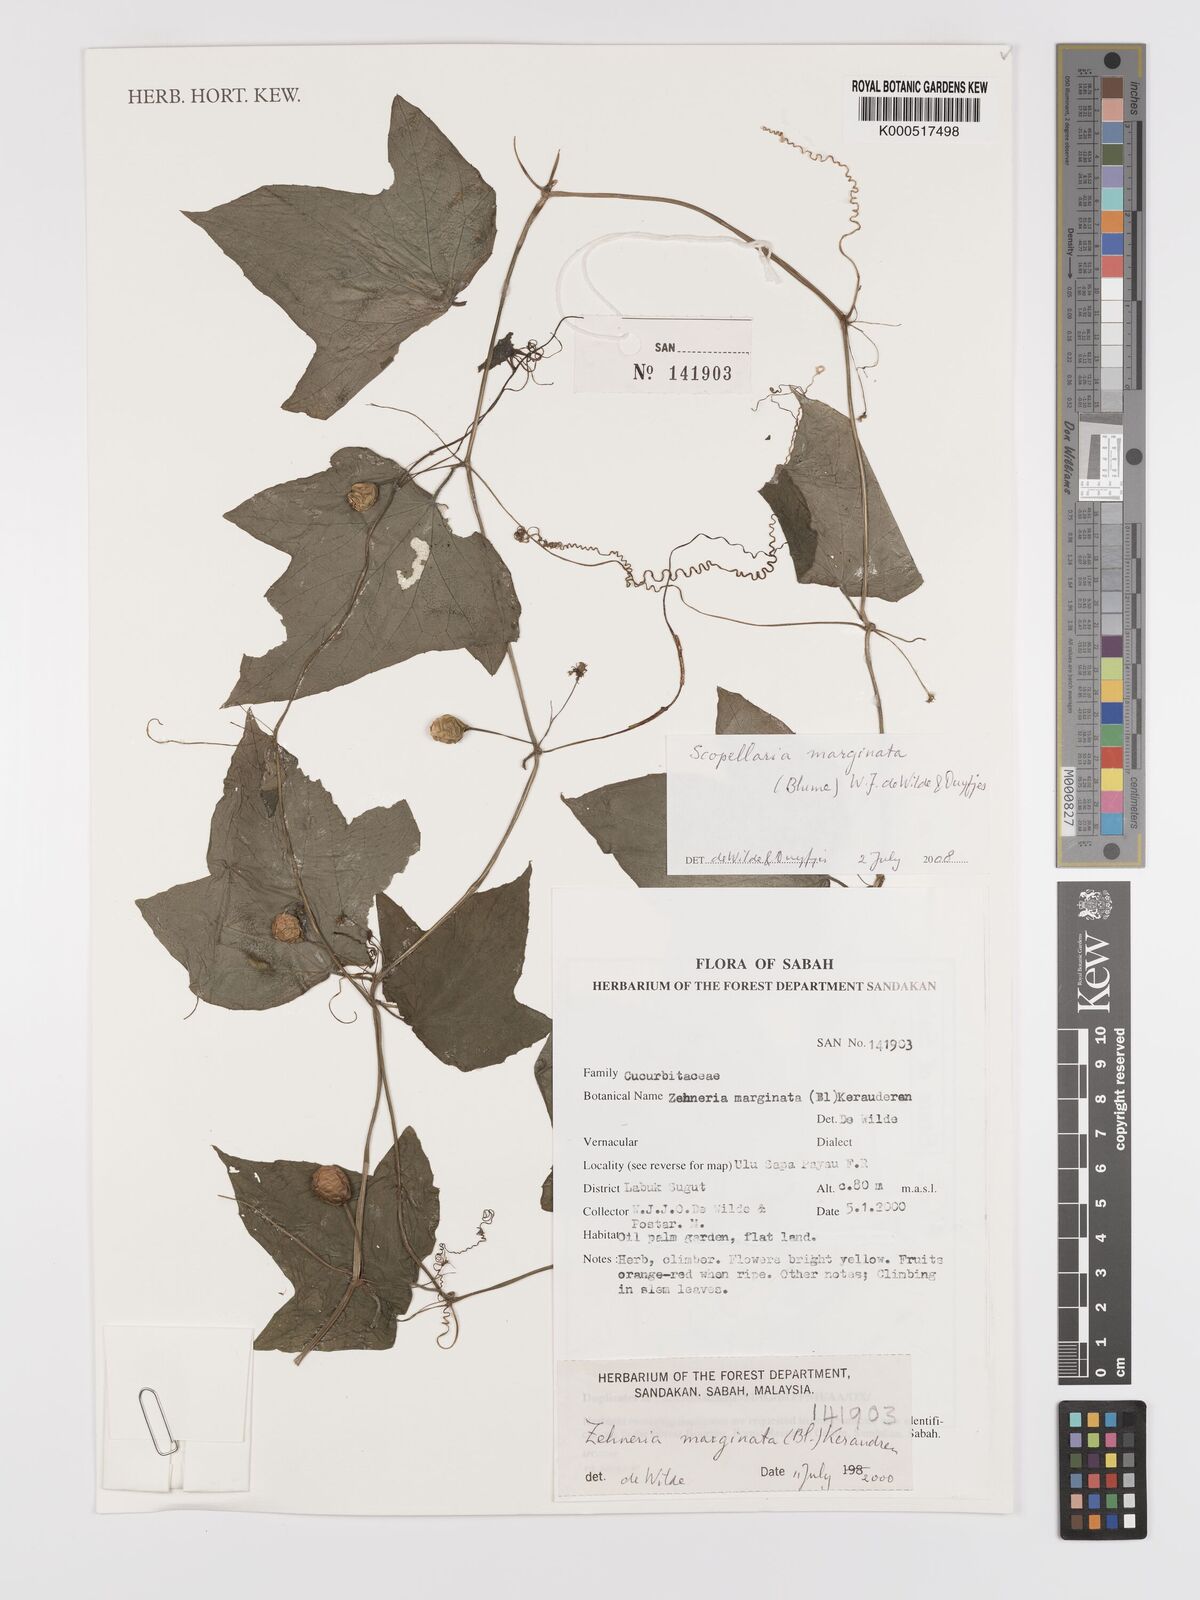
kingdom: Plantae
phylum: Tracheophyta
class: Magnoliopsida
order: Cucurbitales
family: Cucurbitaceae
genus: Scopellaria
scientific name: Scopellaria marginata
